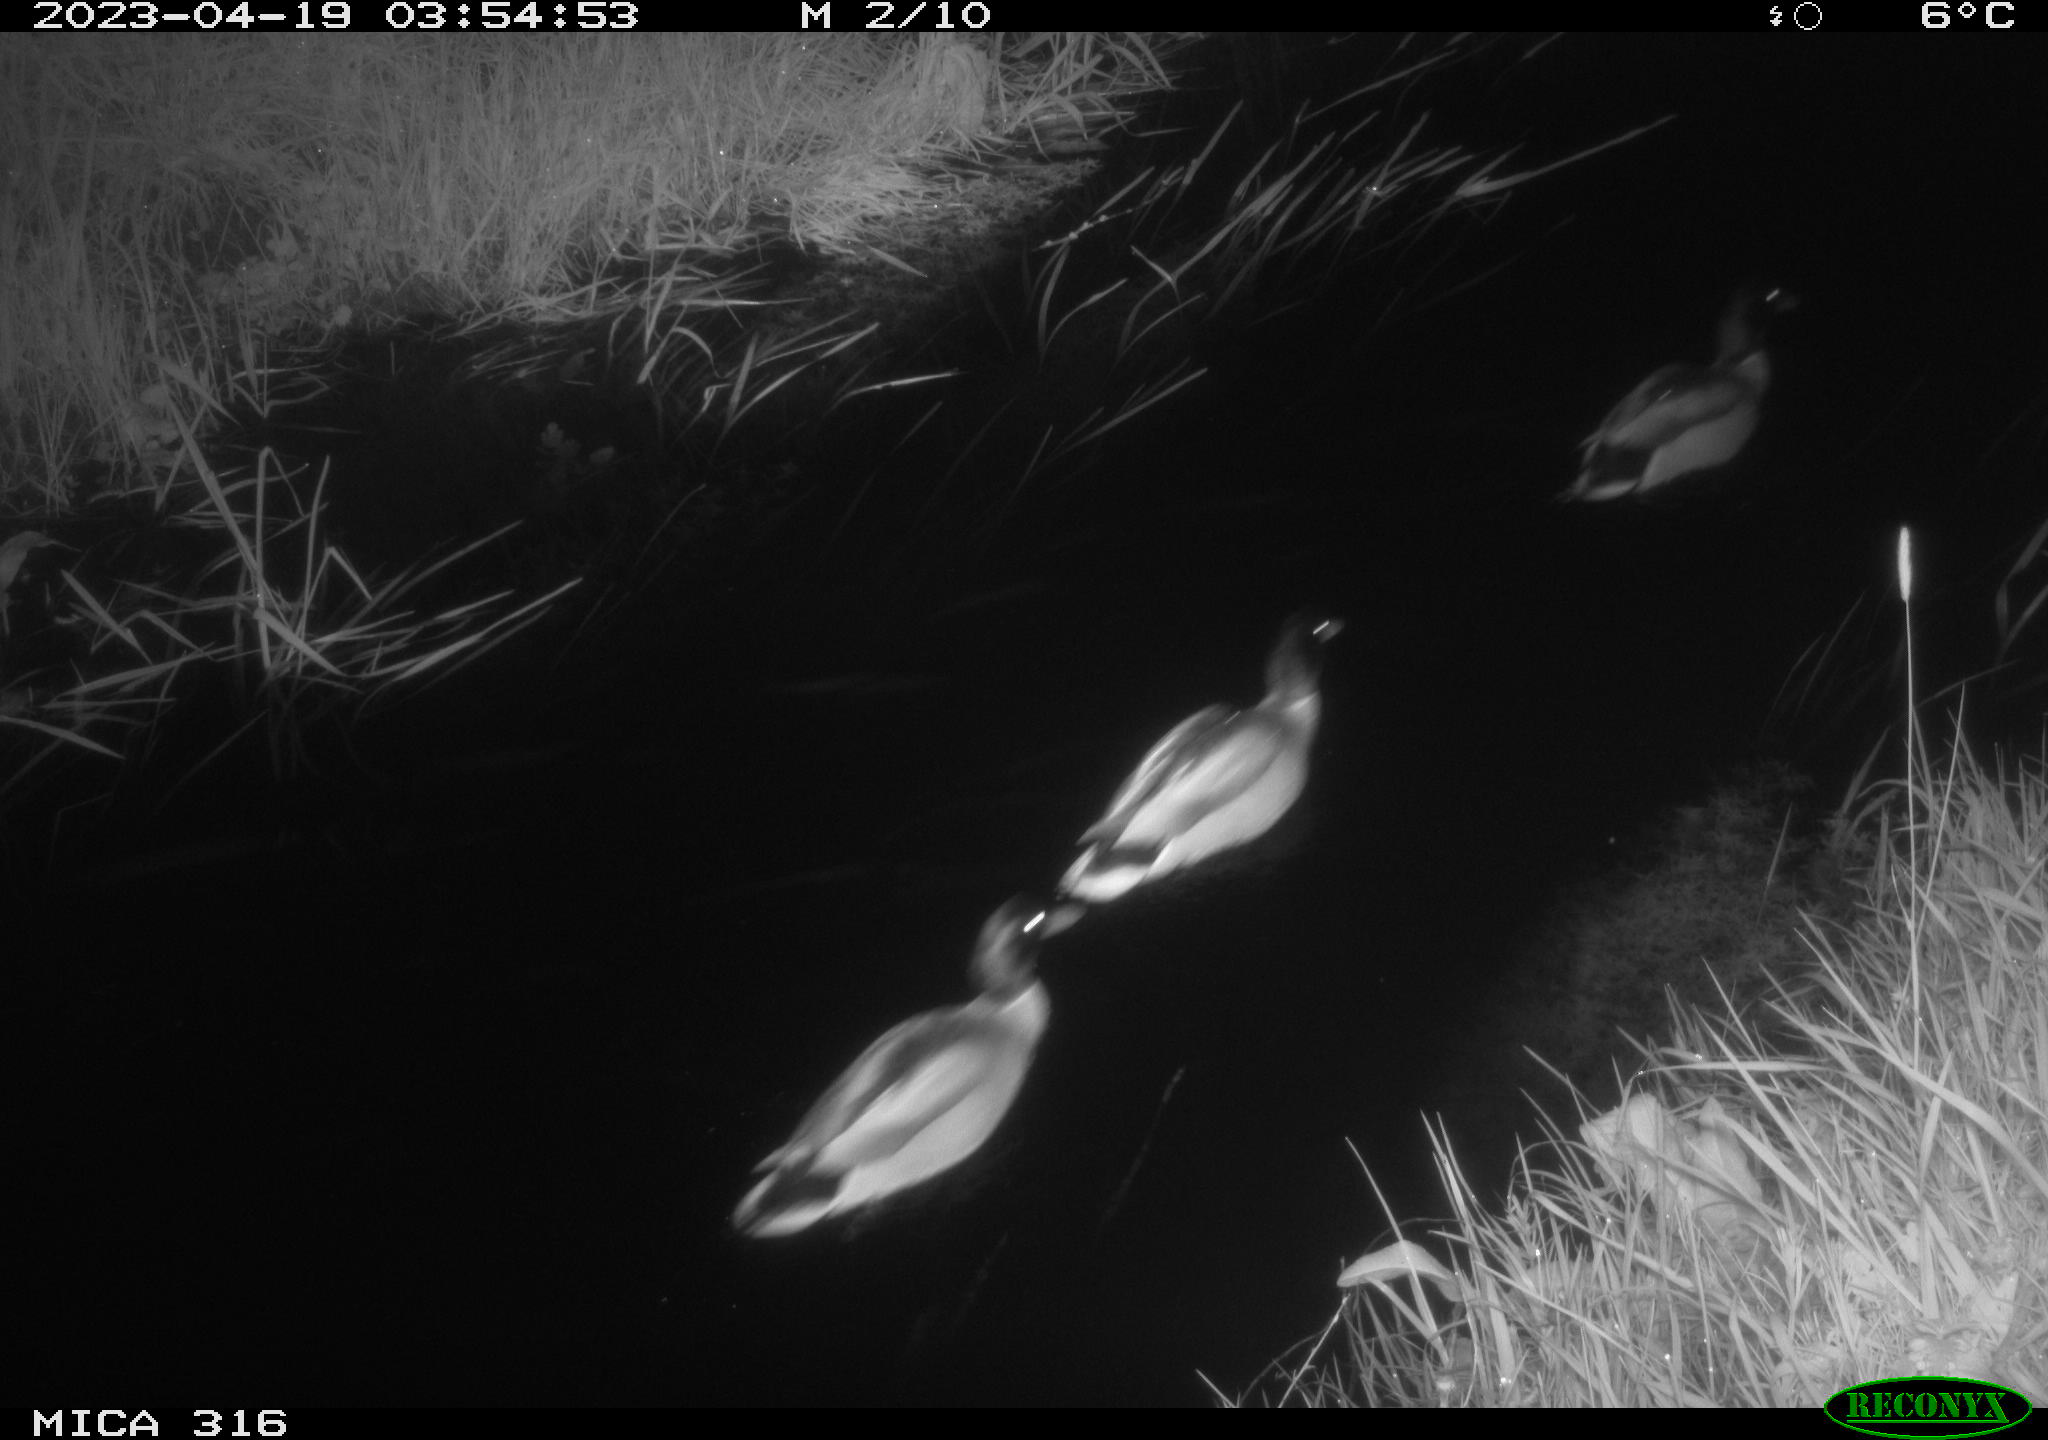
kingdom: Animalia
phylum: Chordata
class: Aves
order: Anseriformes
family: Anatidae
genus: Anas
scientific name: Anas
